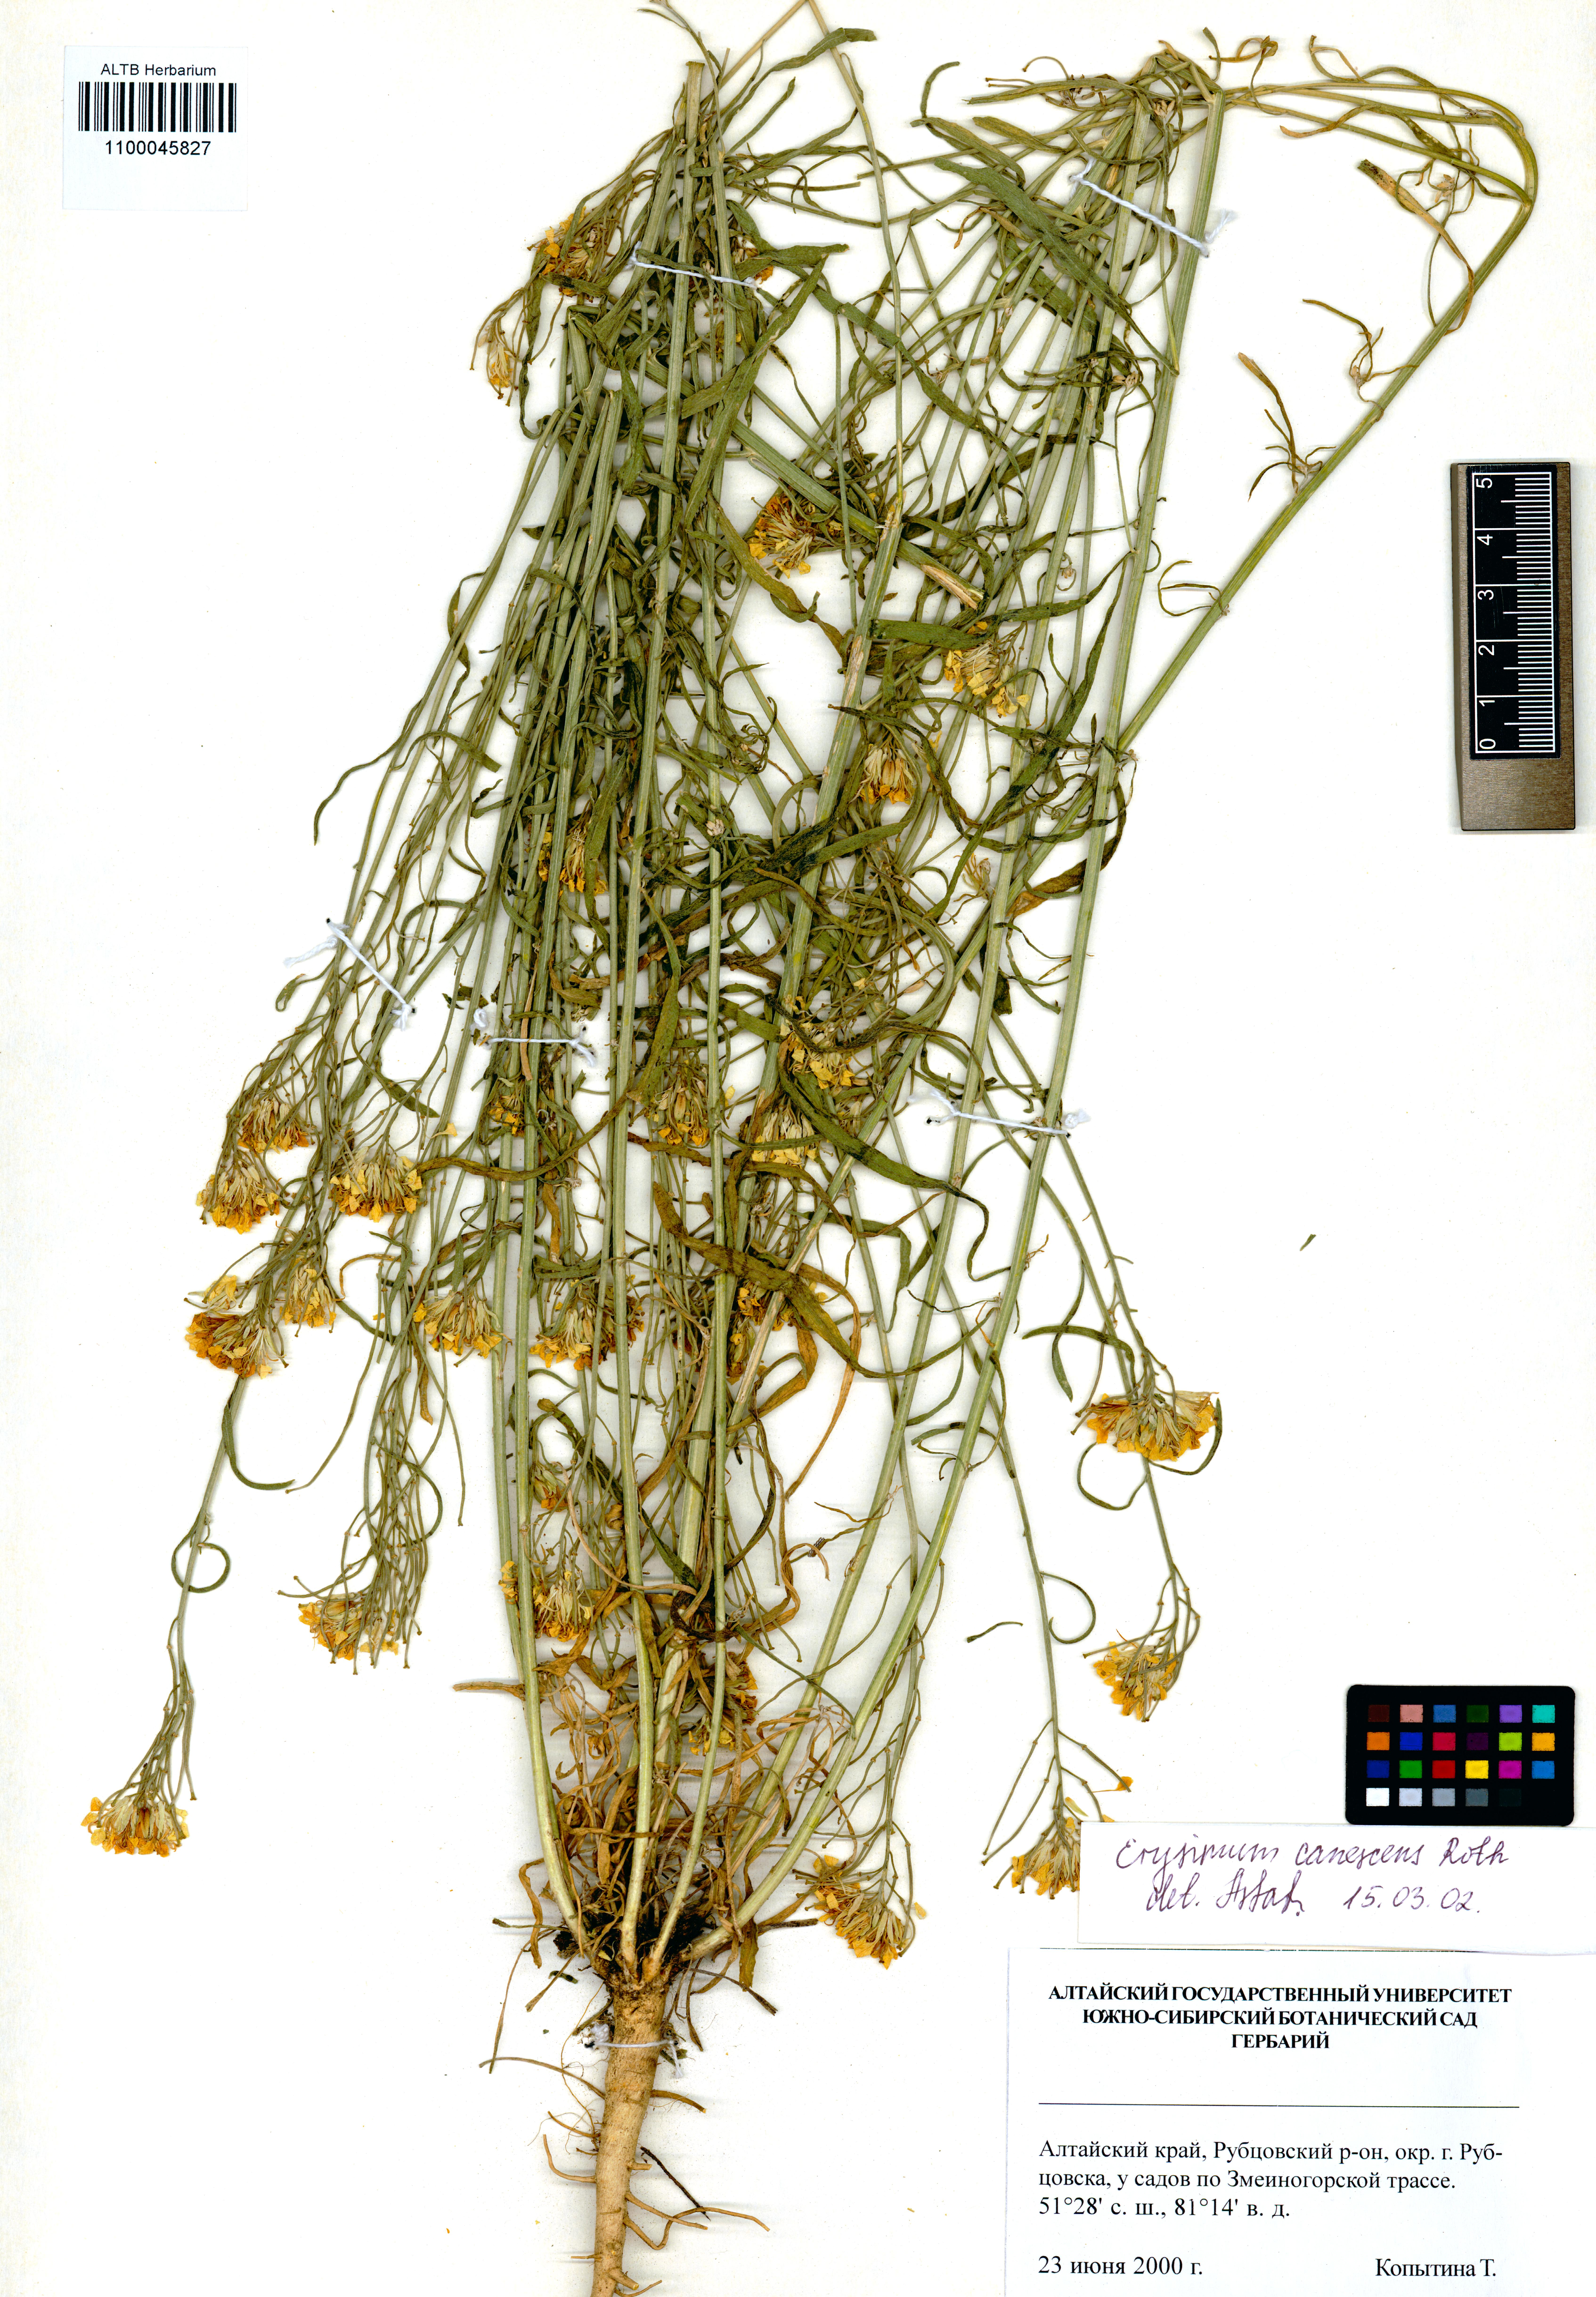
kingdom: Plantae
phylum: Tracheophyta
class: Magnoliopsida
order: Brassicales
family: Brassicaceae
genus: Erysimum
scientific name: Erysimum canescens
